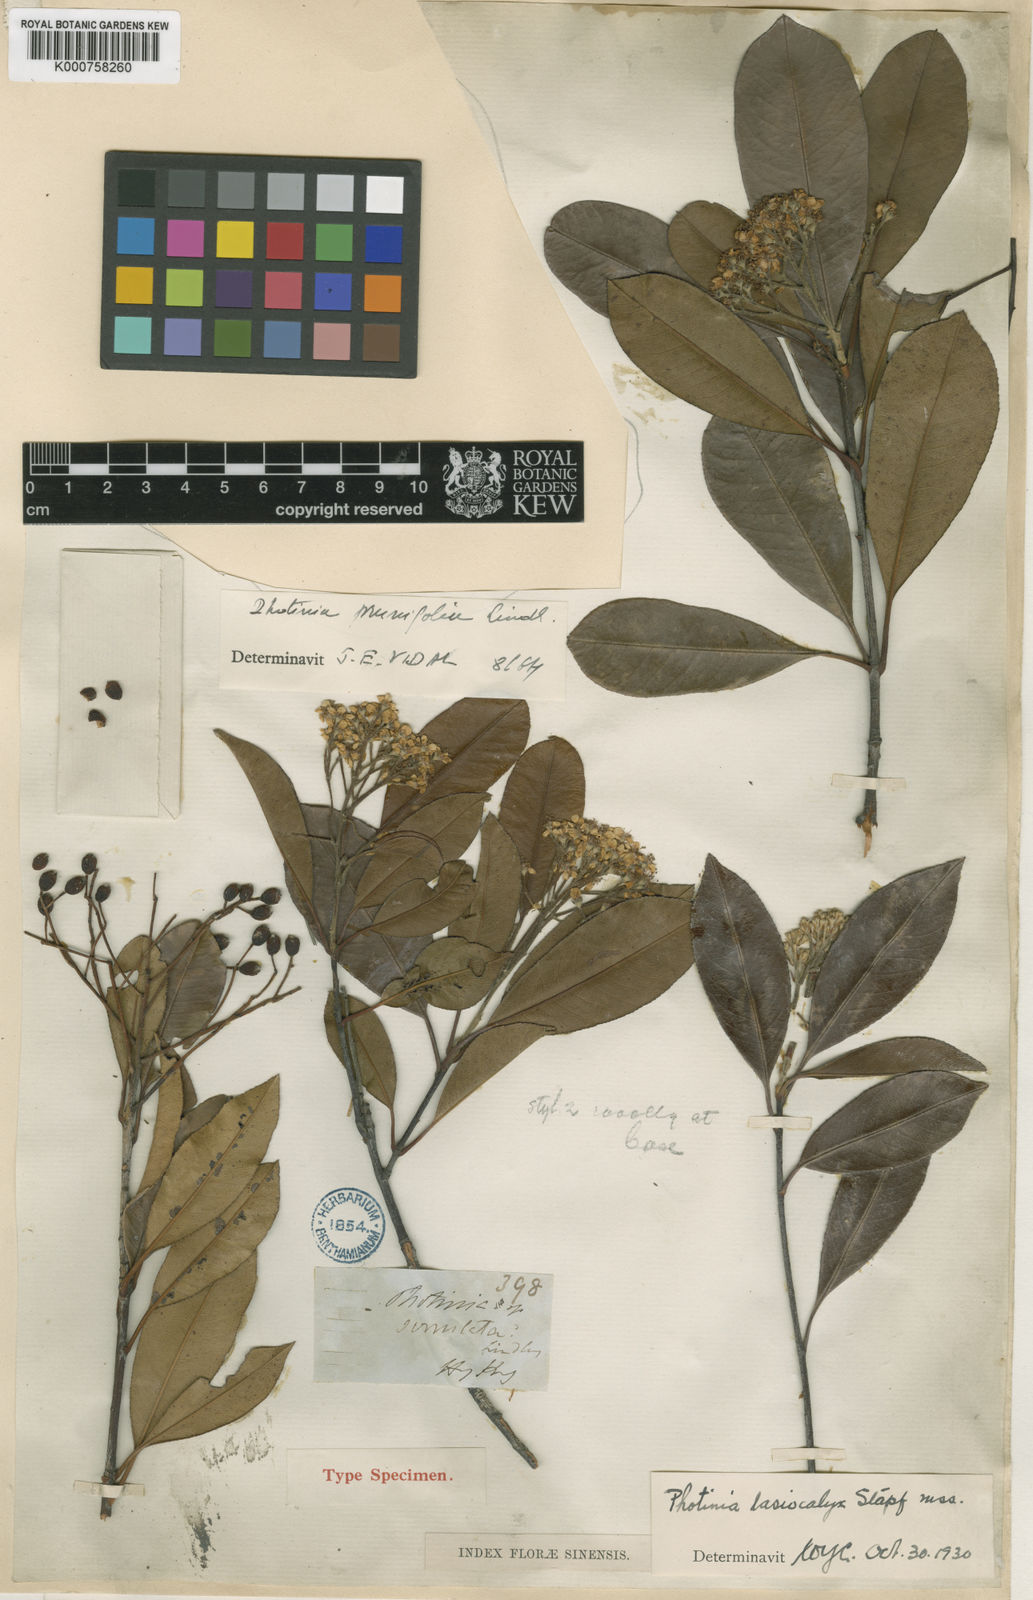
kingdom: Plantae
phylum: Tracheophyta
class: Magnoliopsida
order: Rosales
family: Rosaceae
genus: Photinia
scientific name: Photinia prunifolia
